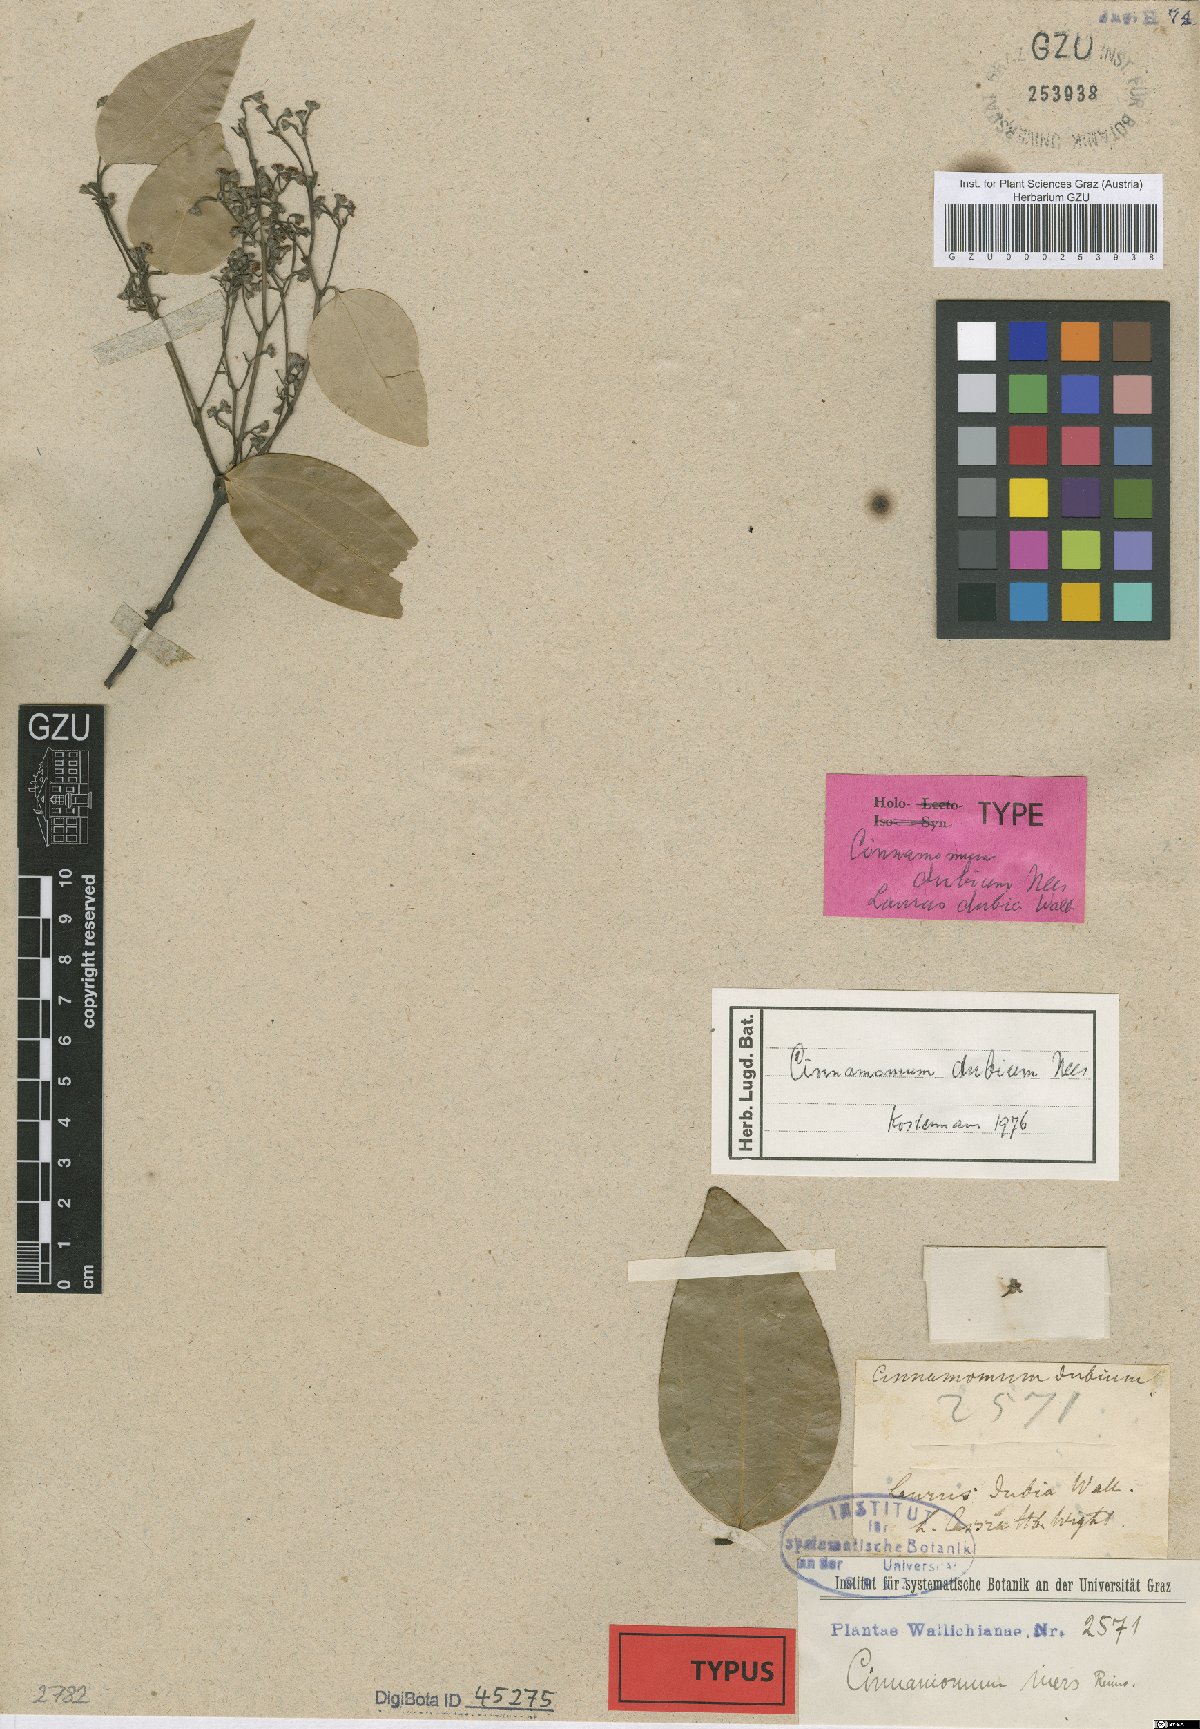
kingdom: Plantae
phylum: Tracheophyta
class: Magnoliopsida
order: Laurales
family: Lauraceae
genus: Cinnamomum
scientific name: Cinnamomum dubium
